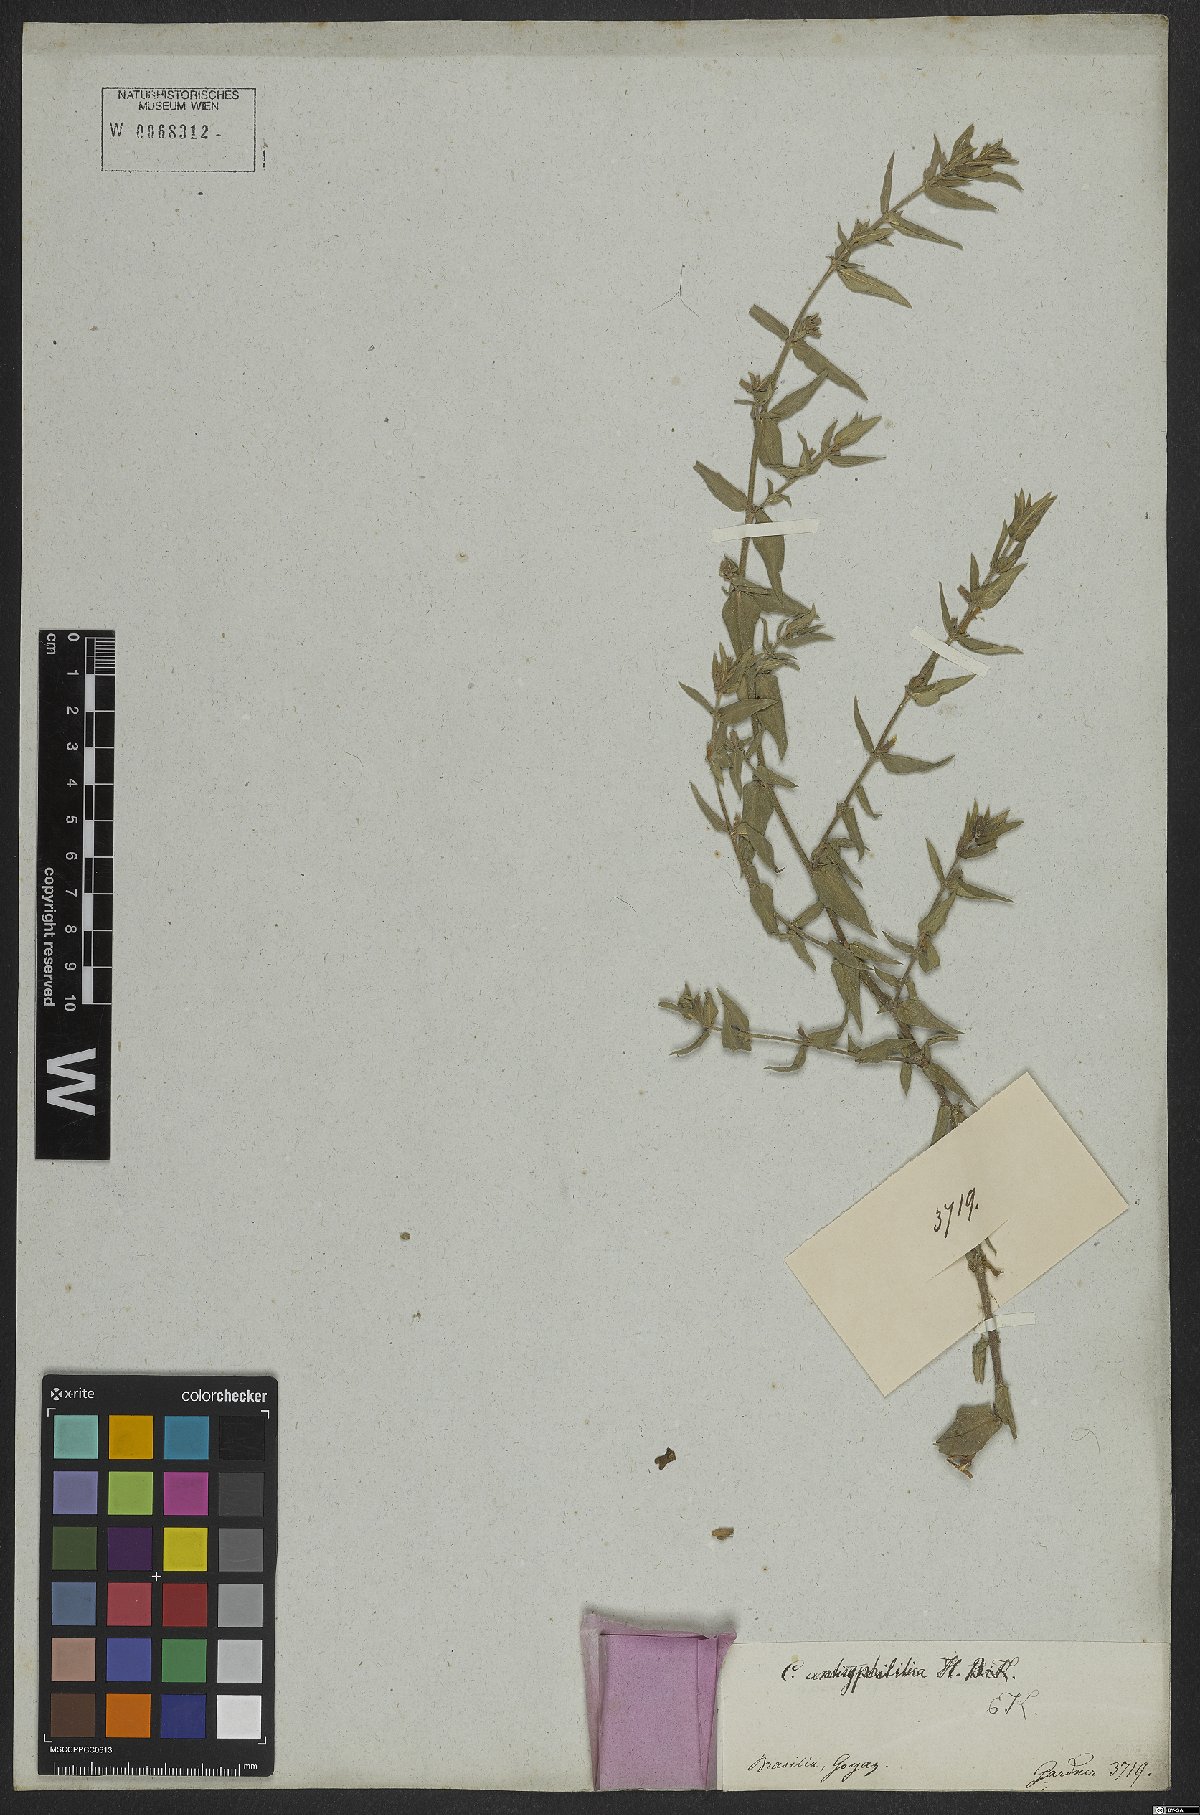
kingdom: Plantae
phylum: Tracheophyta
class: Magnoliopsida
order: Myrtales
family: Lythraceae
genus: Cuphea
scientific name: Cuphea antisyphilitica
